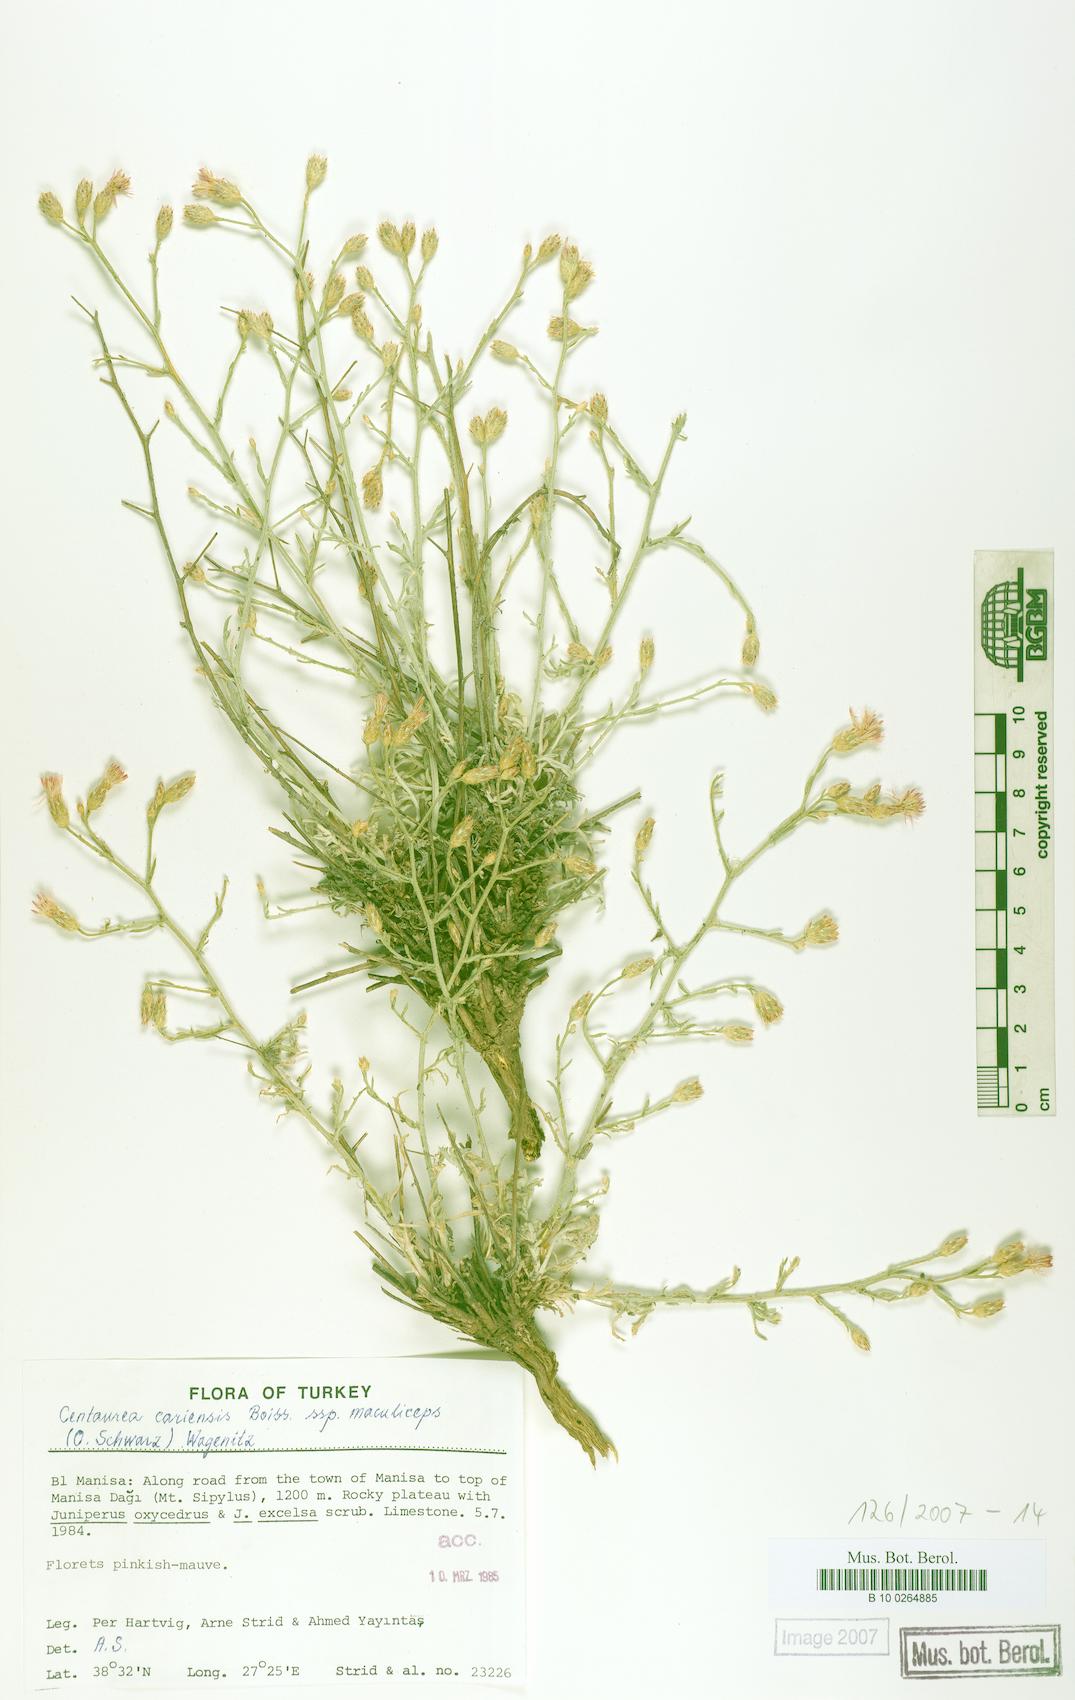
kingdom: Plantae
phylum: Tracheophyta
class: Magnoliopsida
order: Asterales
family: Asteraceae
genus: Centaurea
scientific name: Centaurea cariensis
